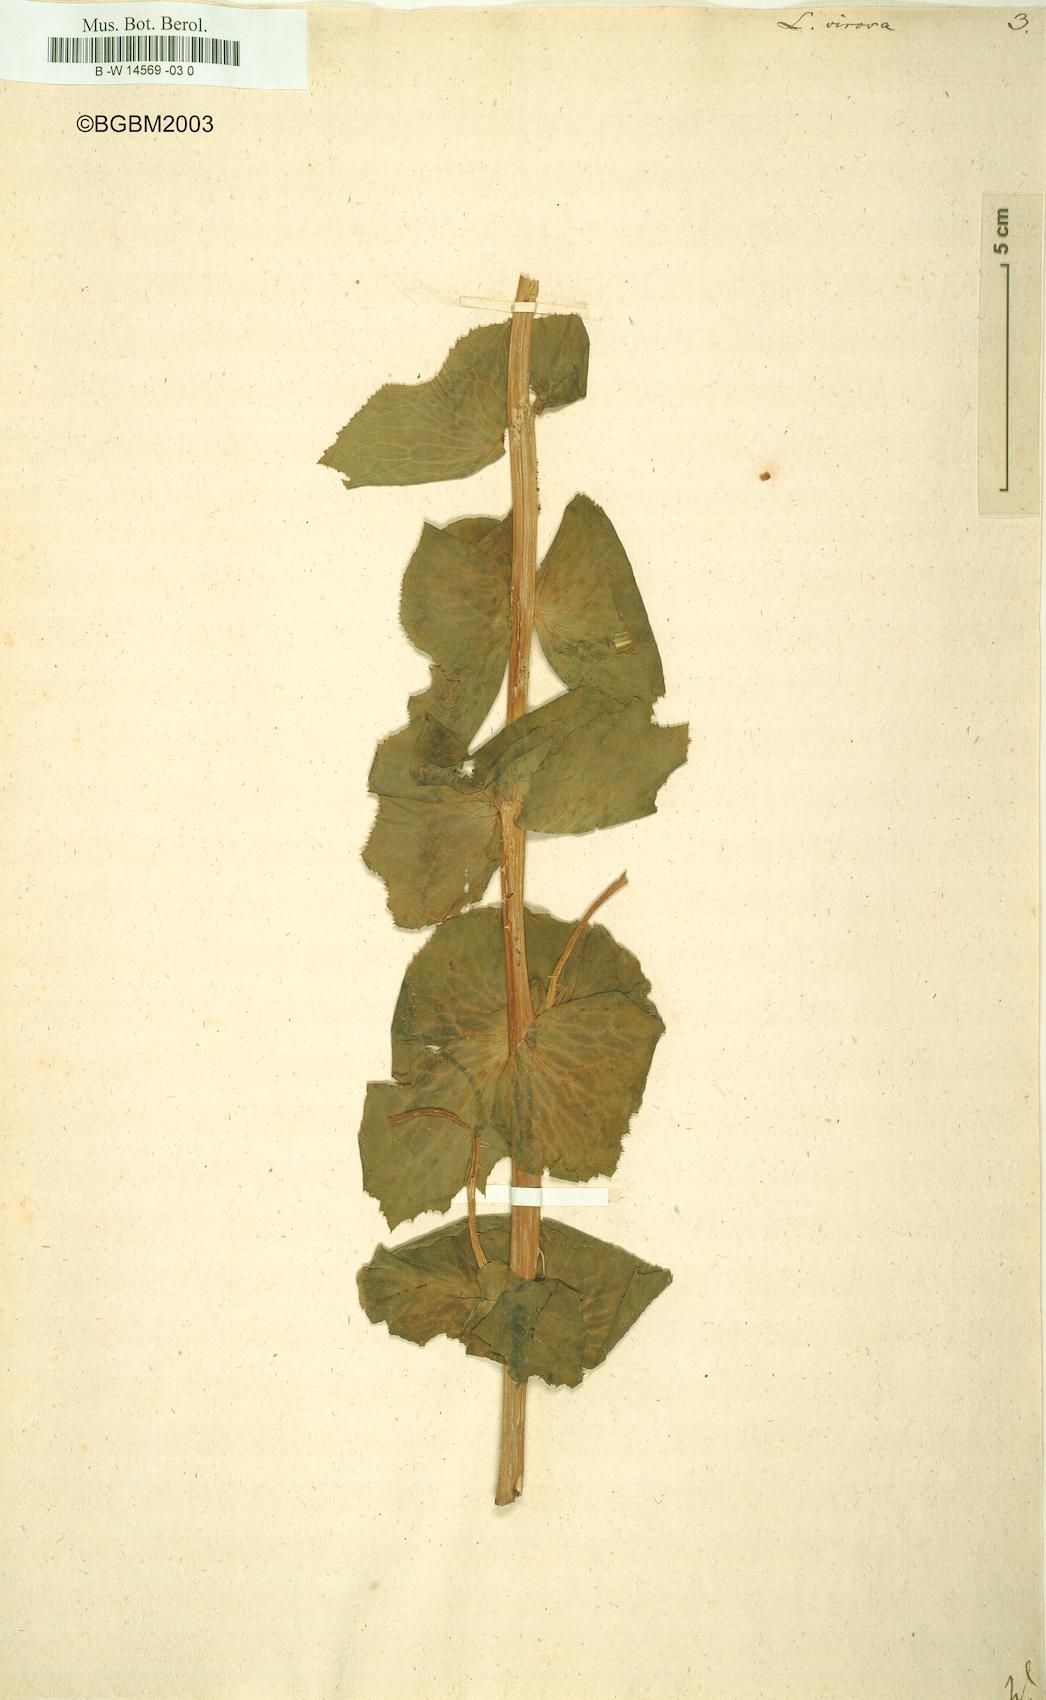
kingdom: Plantae
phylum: Tracheophyta
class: Magnoliopsida
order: Asterales
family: Asteraceae
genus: Lactuca
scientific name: Lactuca virosa
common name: Great lettuce
